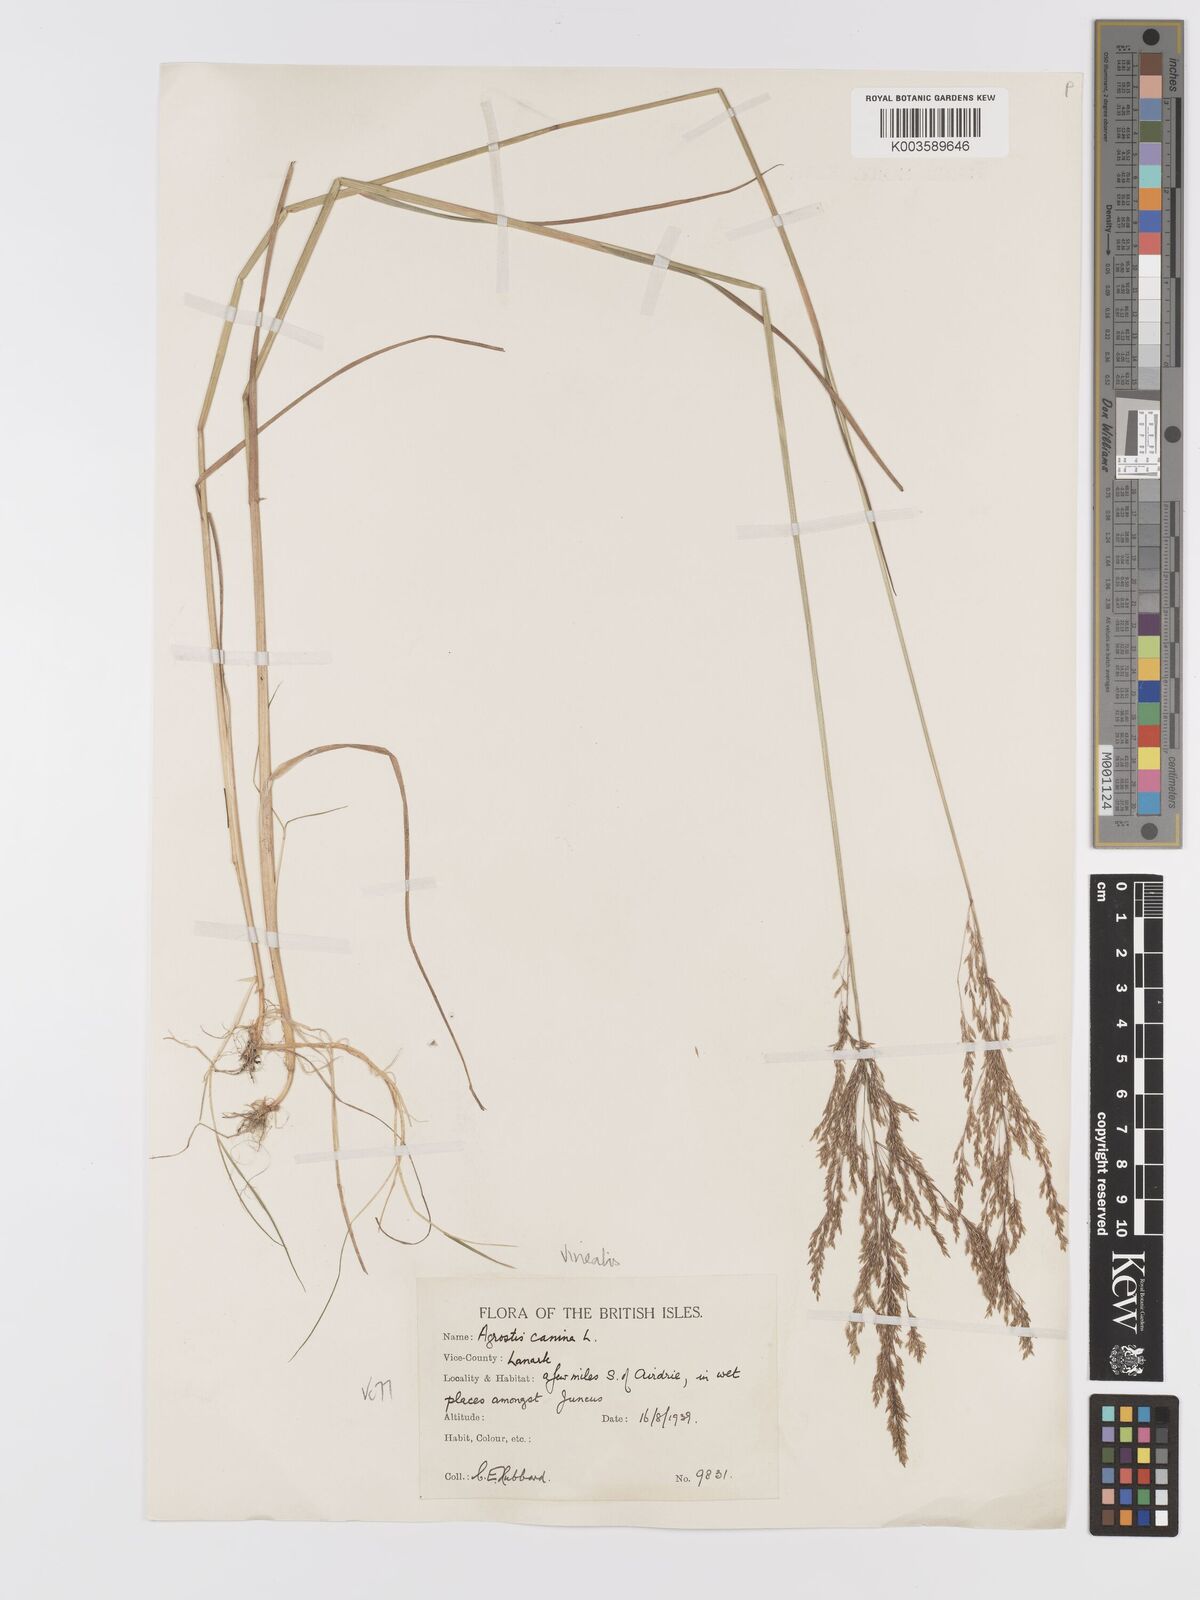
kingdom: Plantae
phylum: Tracheophyta
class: Liliopsida
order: Poales
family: Poaceae
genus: Agrostis
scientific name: Agrostis
